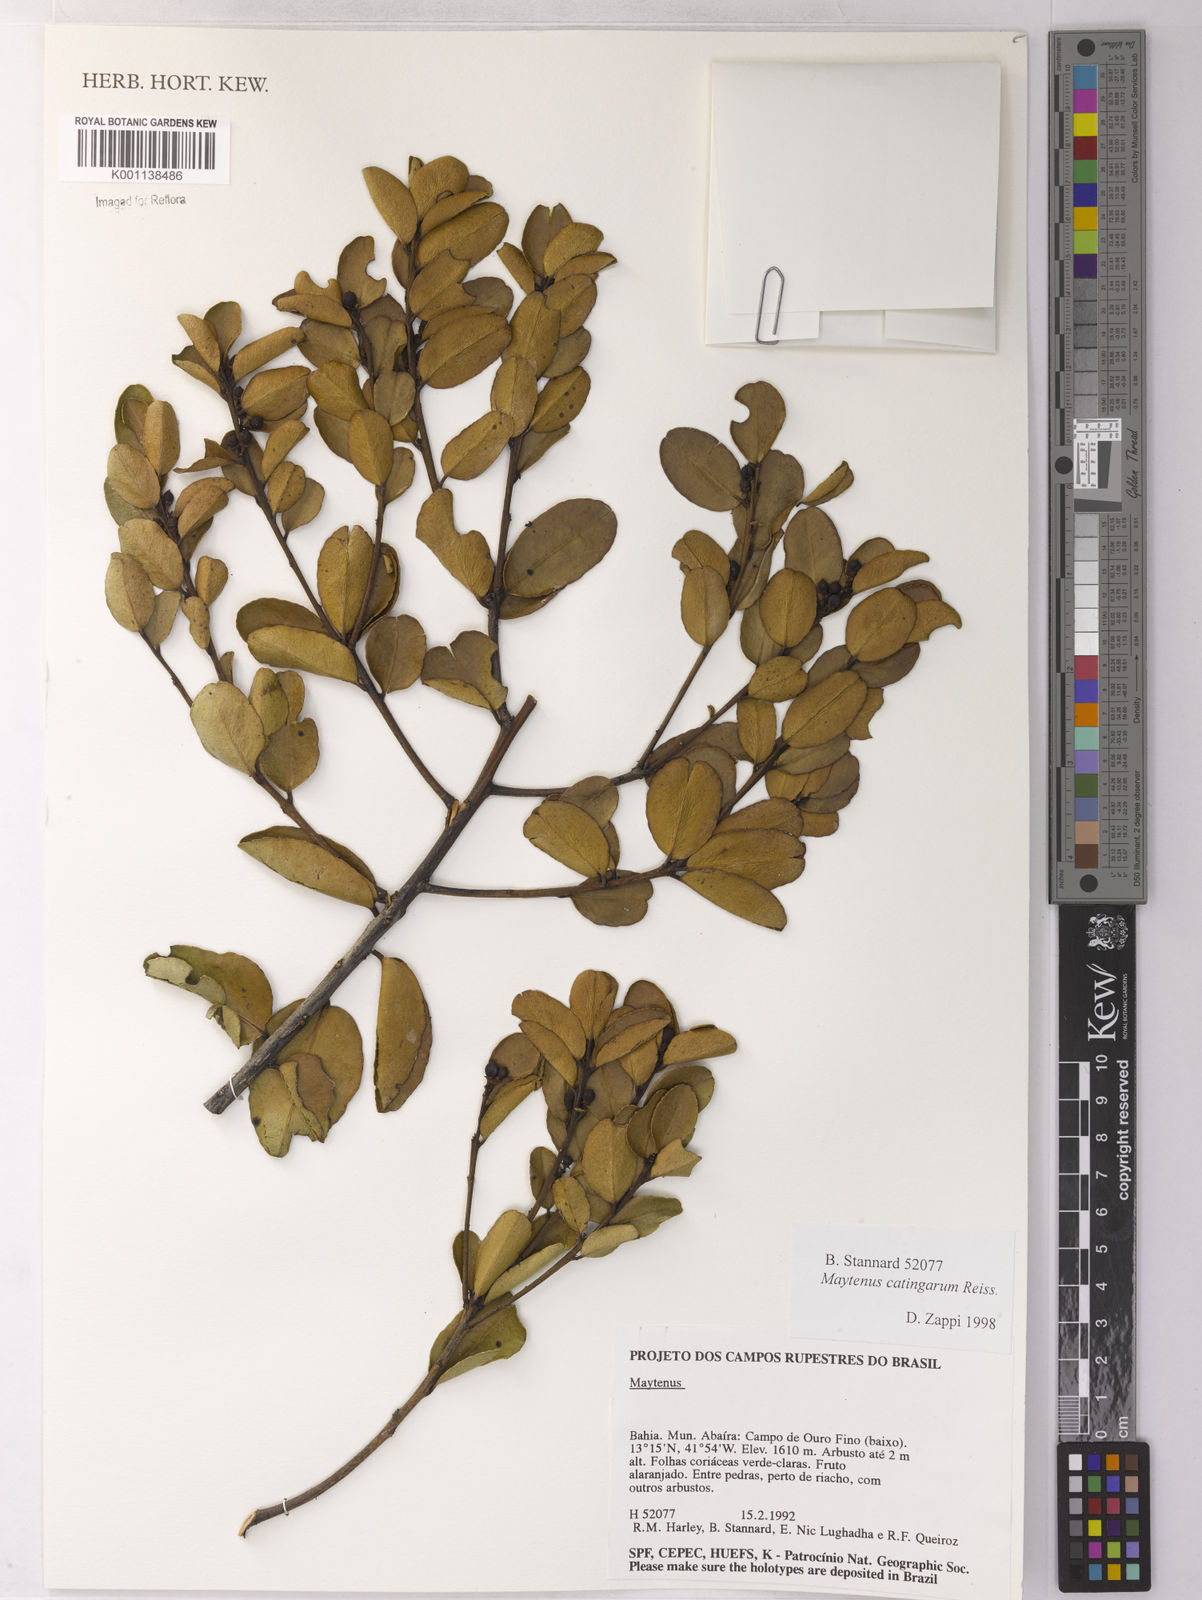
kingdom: Plantae
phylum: Tracheophyta
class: Magnoliopsida
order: Celastrales
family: Celastraceae
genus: Monteverdia
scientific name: Monteverdia catingarum
